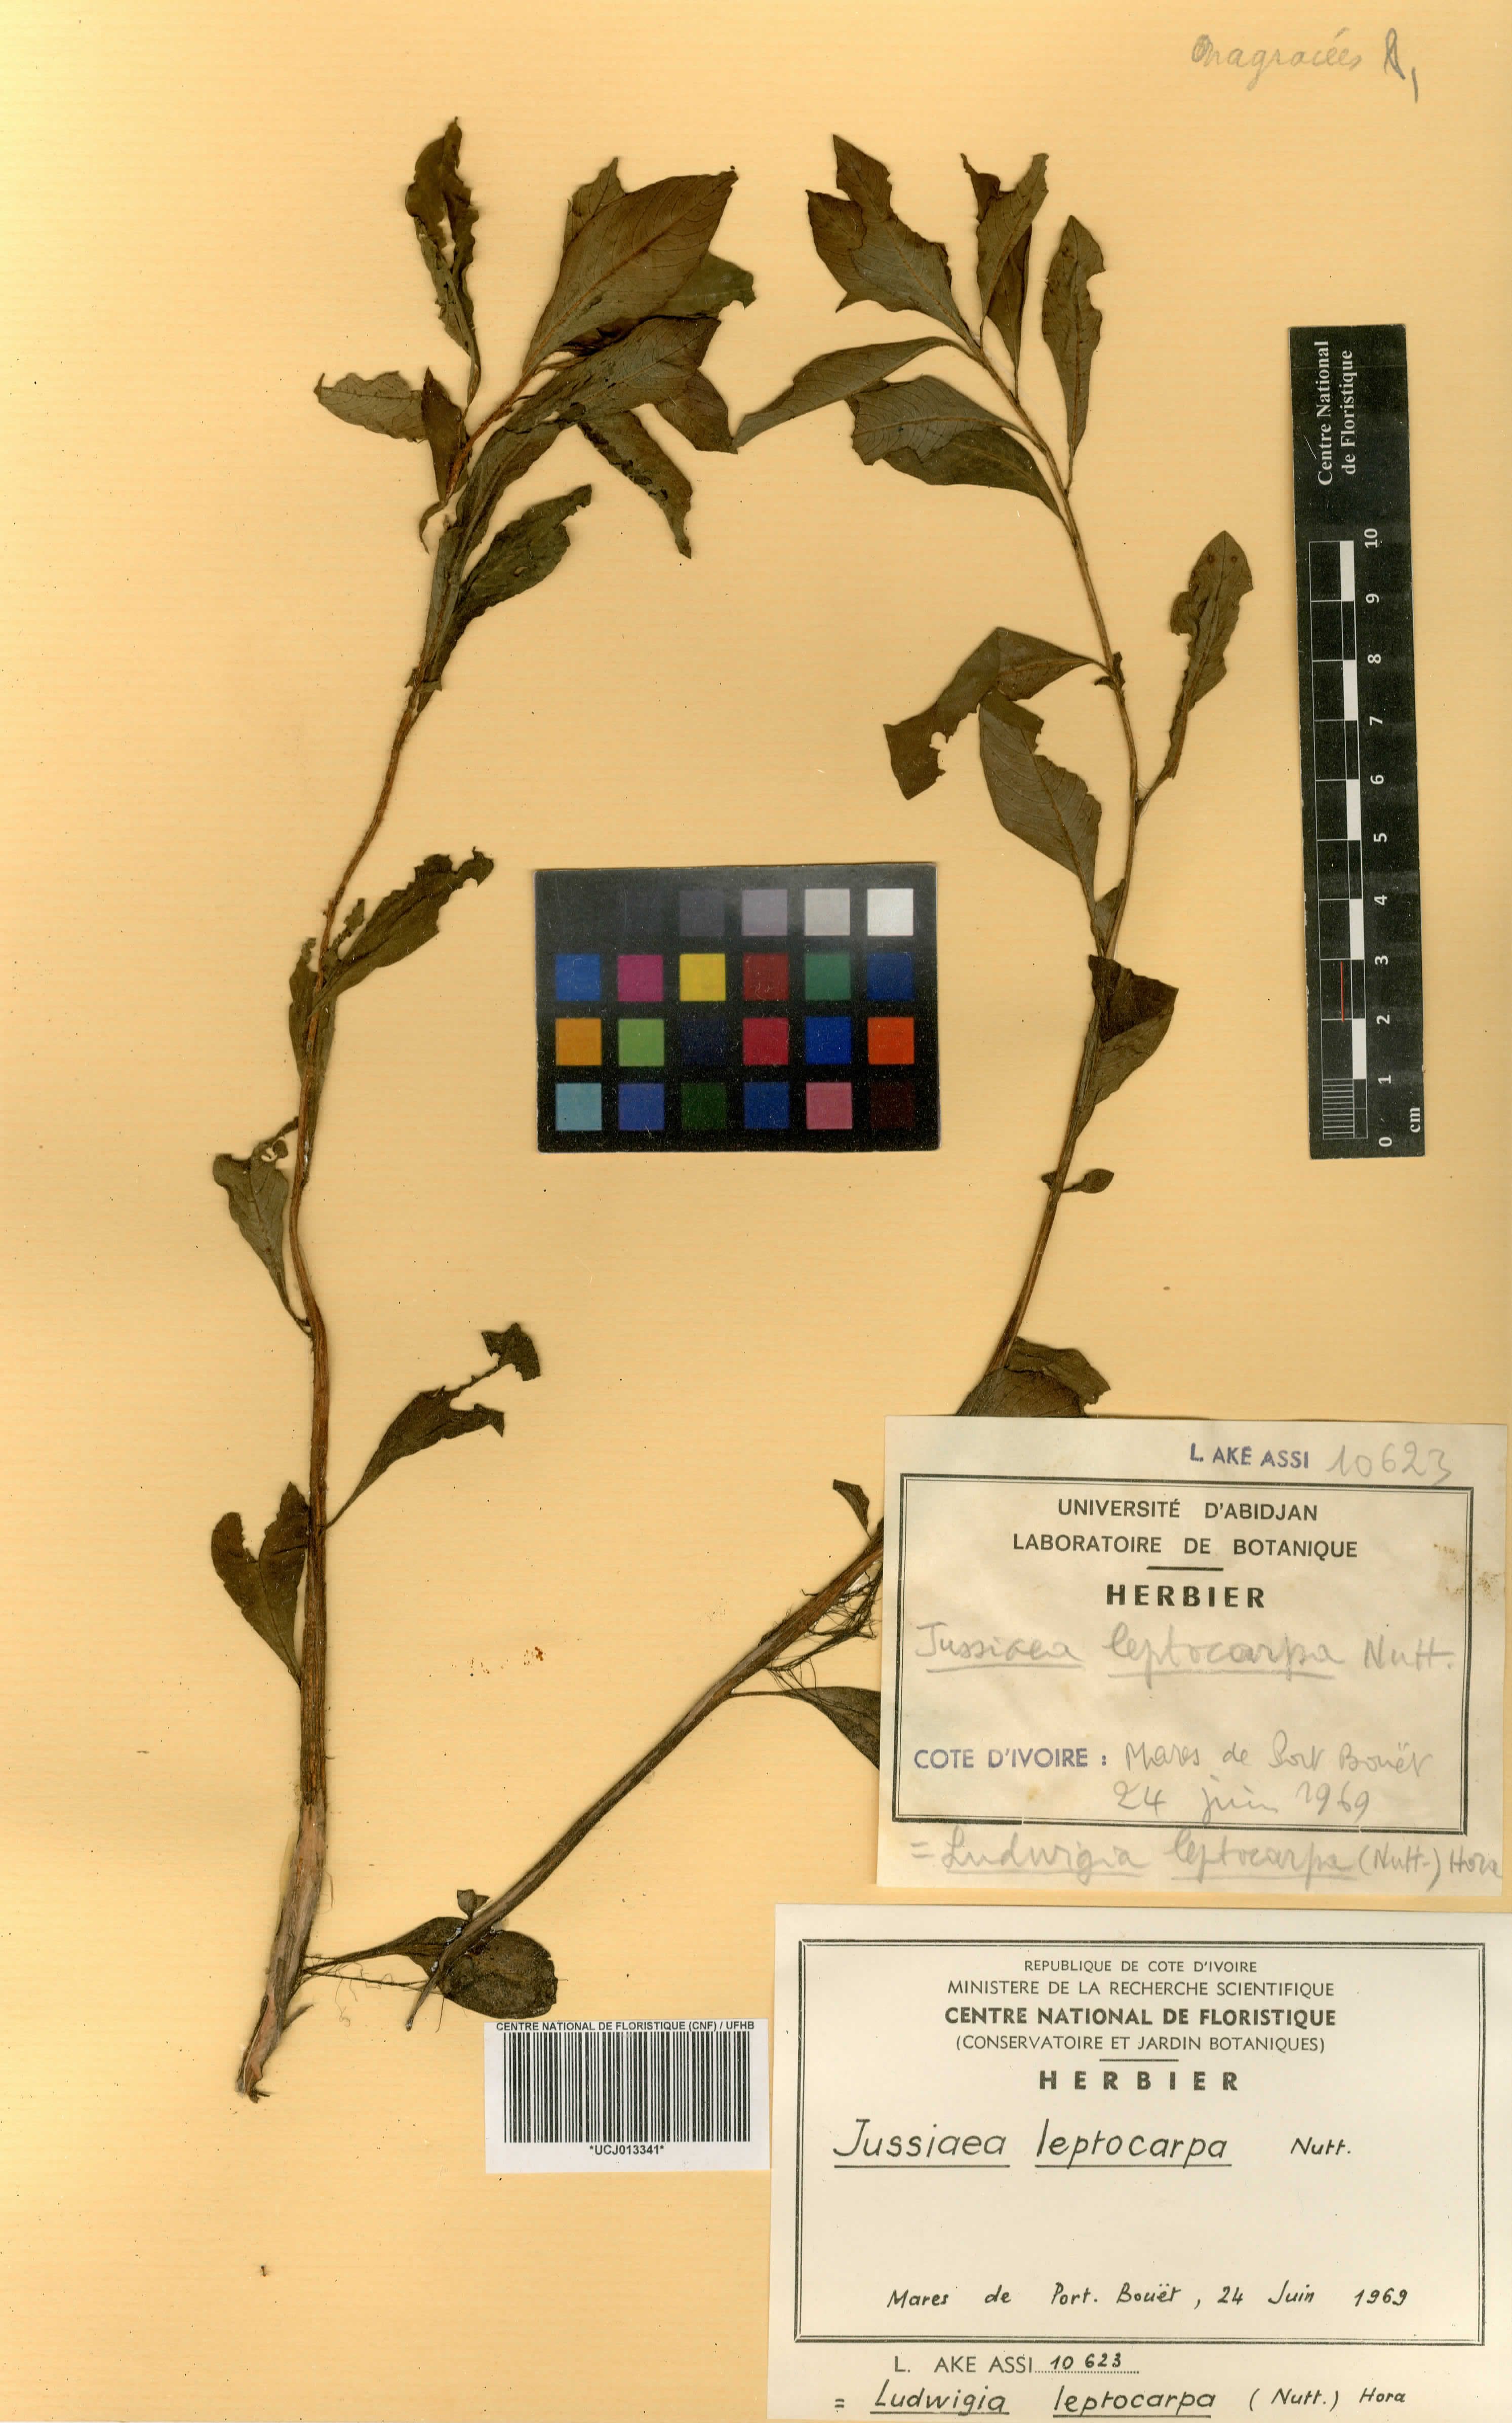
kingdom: Plantae
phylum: Tracheophyta
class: Magnoliopsida
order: Myrtales
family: Onagraceae
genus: Ludwigia
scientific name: Ludwigia leptocarpa
